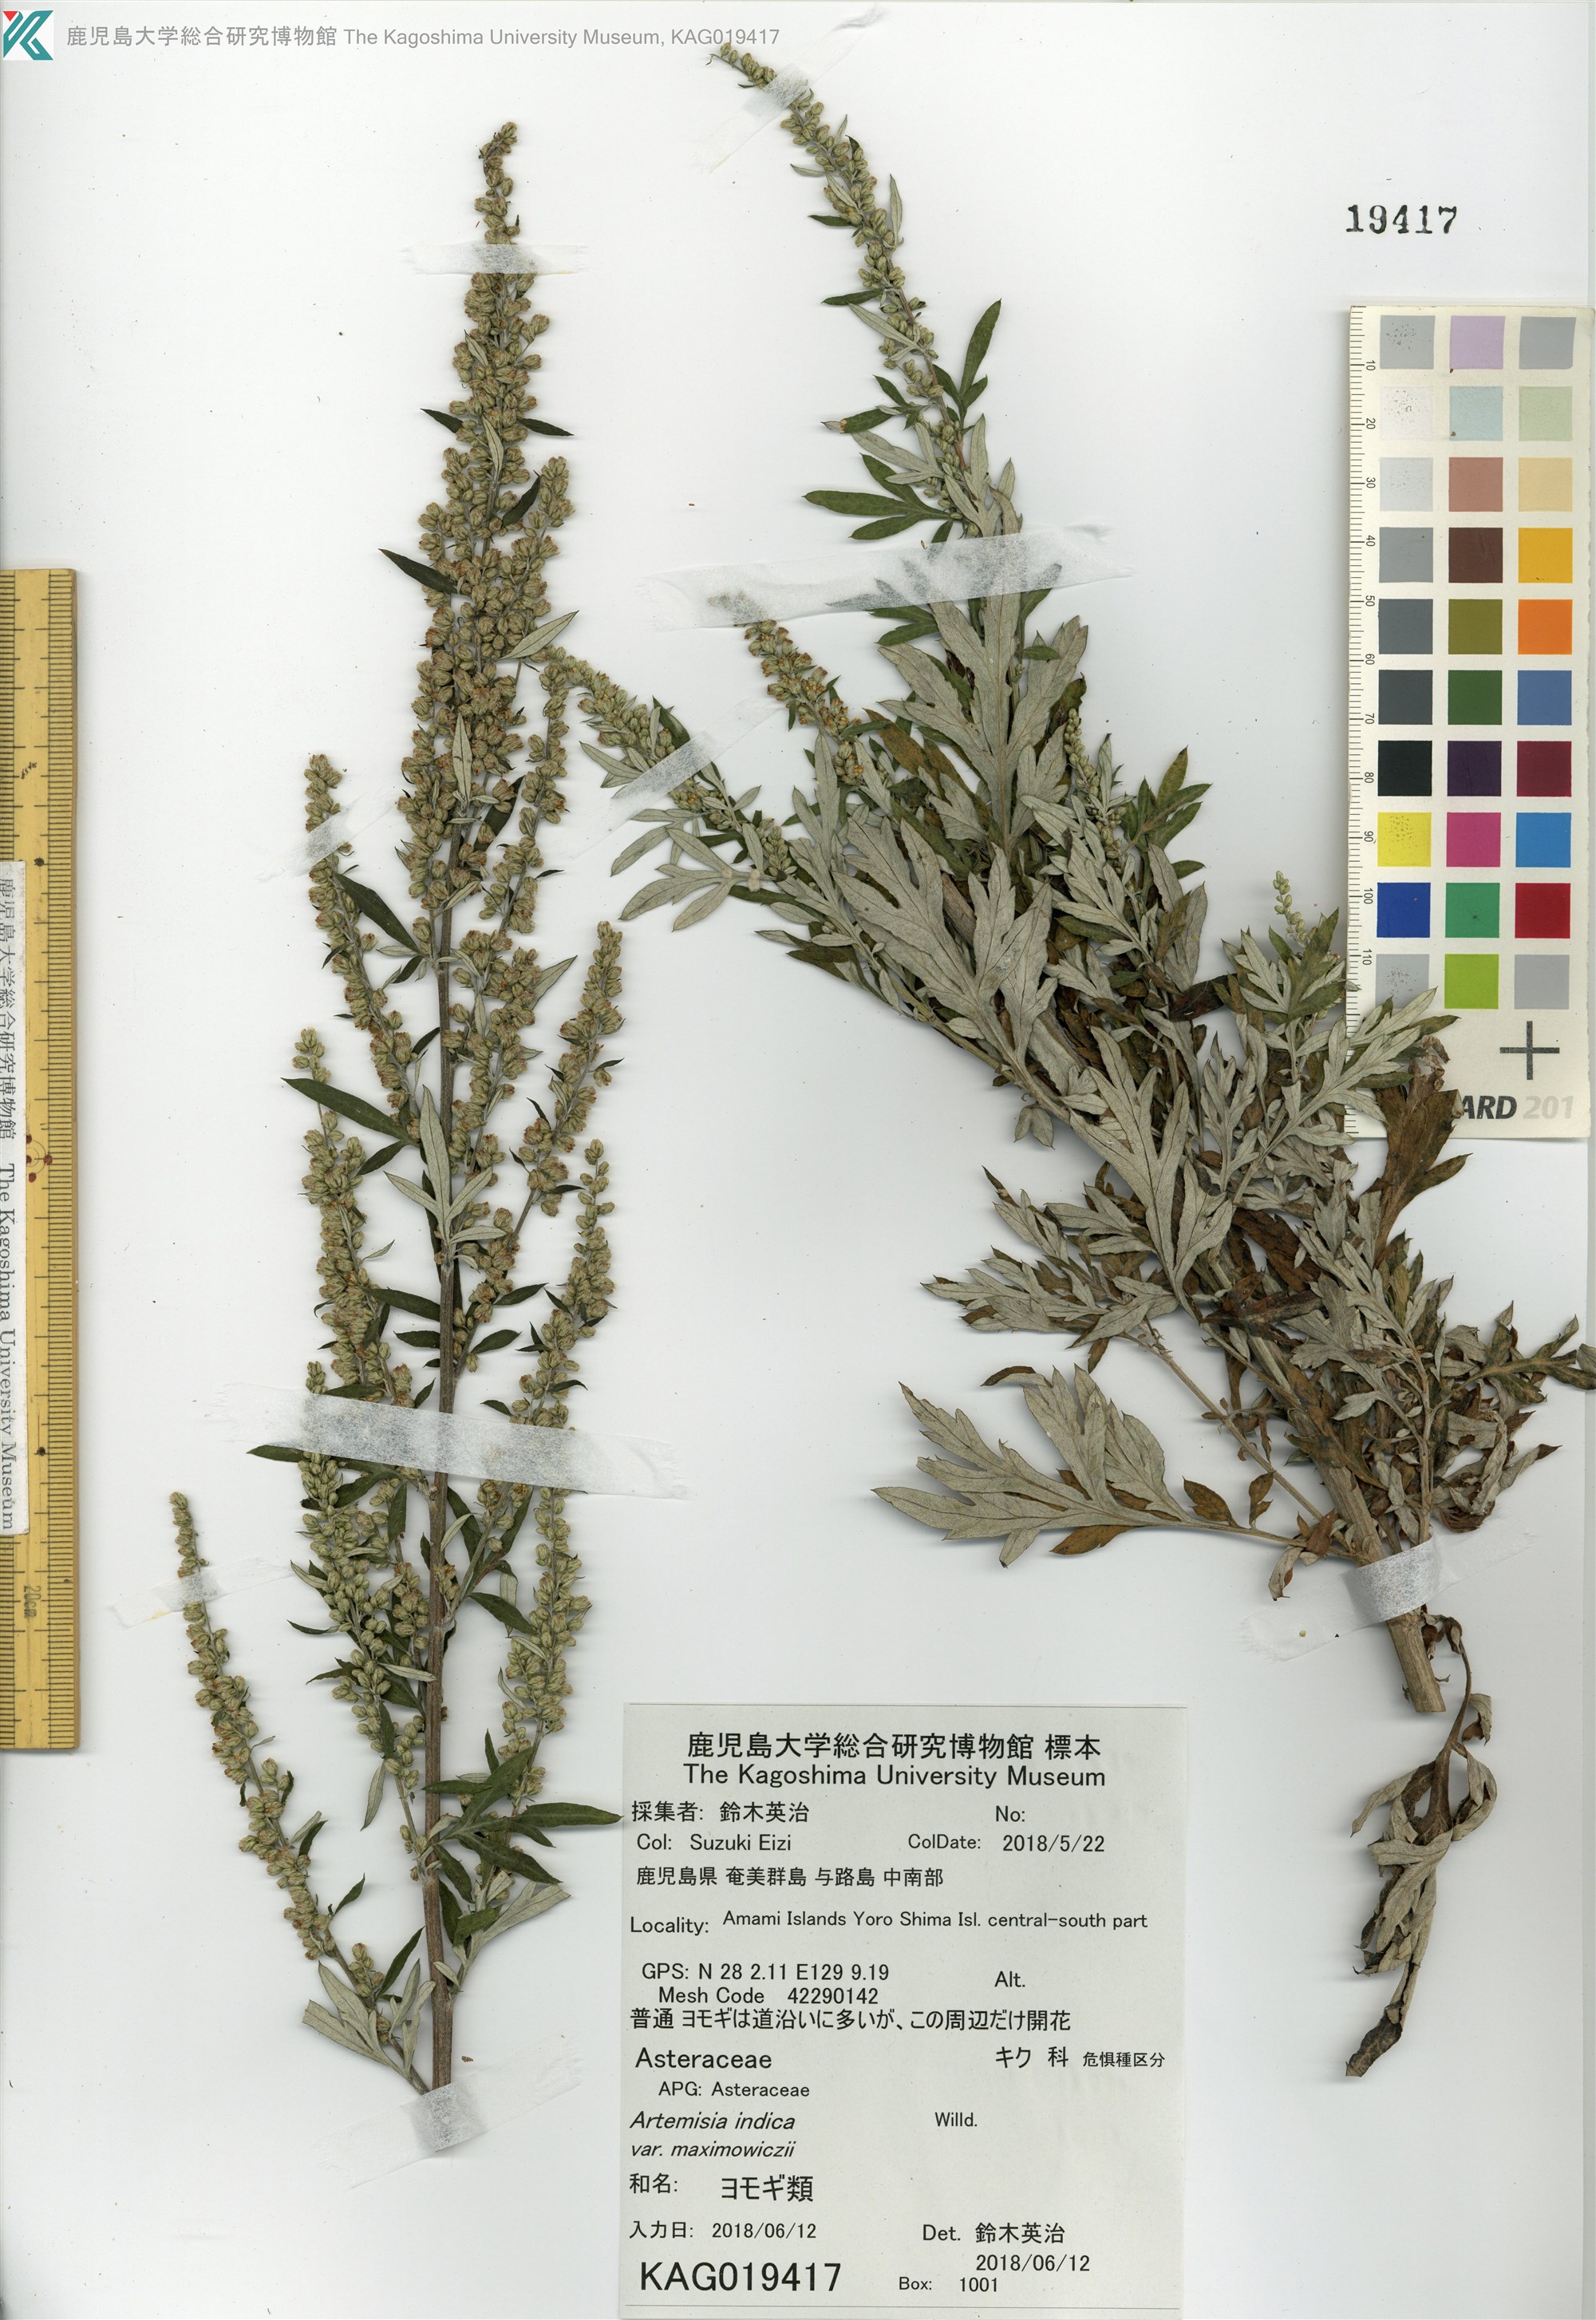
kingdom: Plantae
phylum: Tracheophyta
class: Magnoliopsida
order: Asterales
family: Asteraceae
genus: Artemisia
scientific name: Artemisia indica
